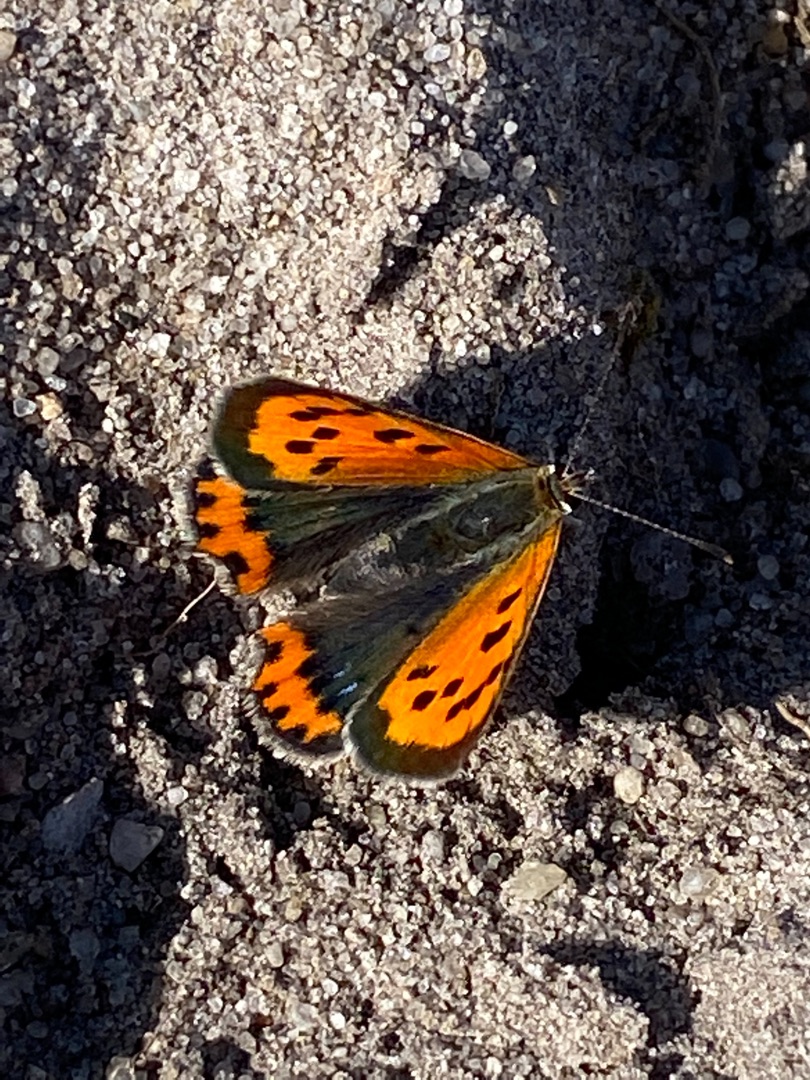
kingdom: Animalia
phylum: Arthropoda
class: Insecta
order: Lepidoptera
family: Lycaenidae
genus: Lycaena
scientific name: Lycaena phlaeas
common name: Lille ildfugl
